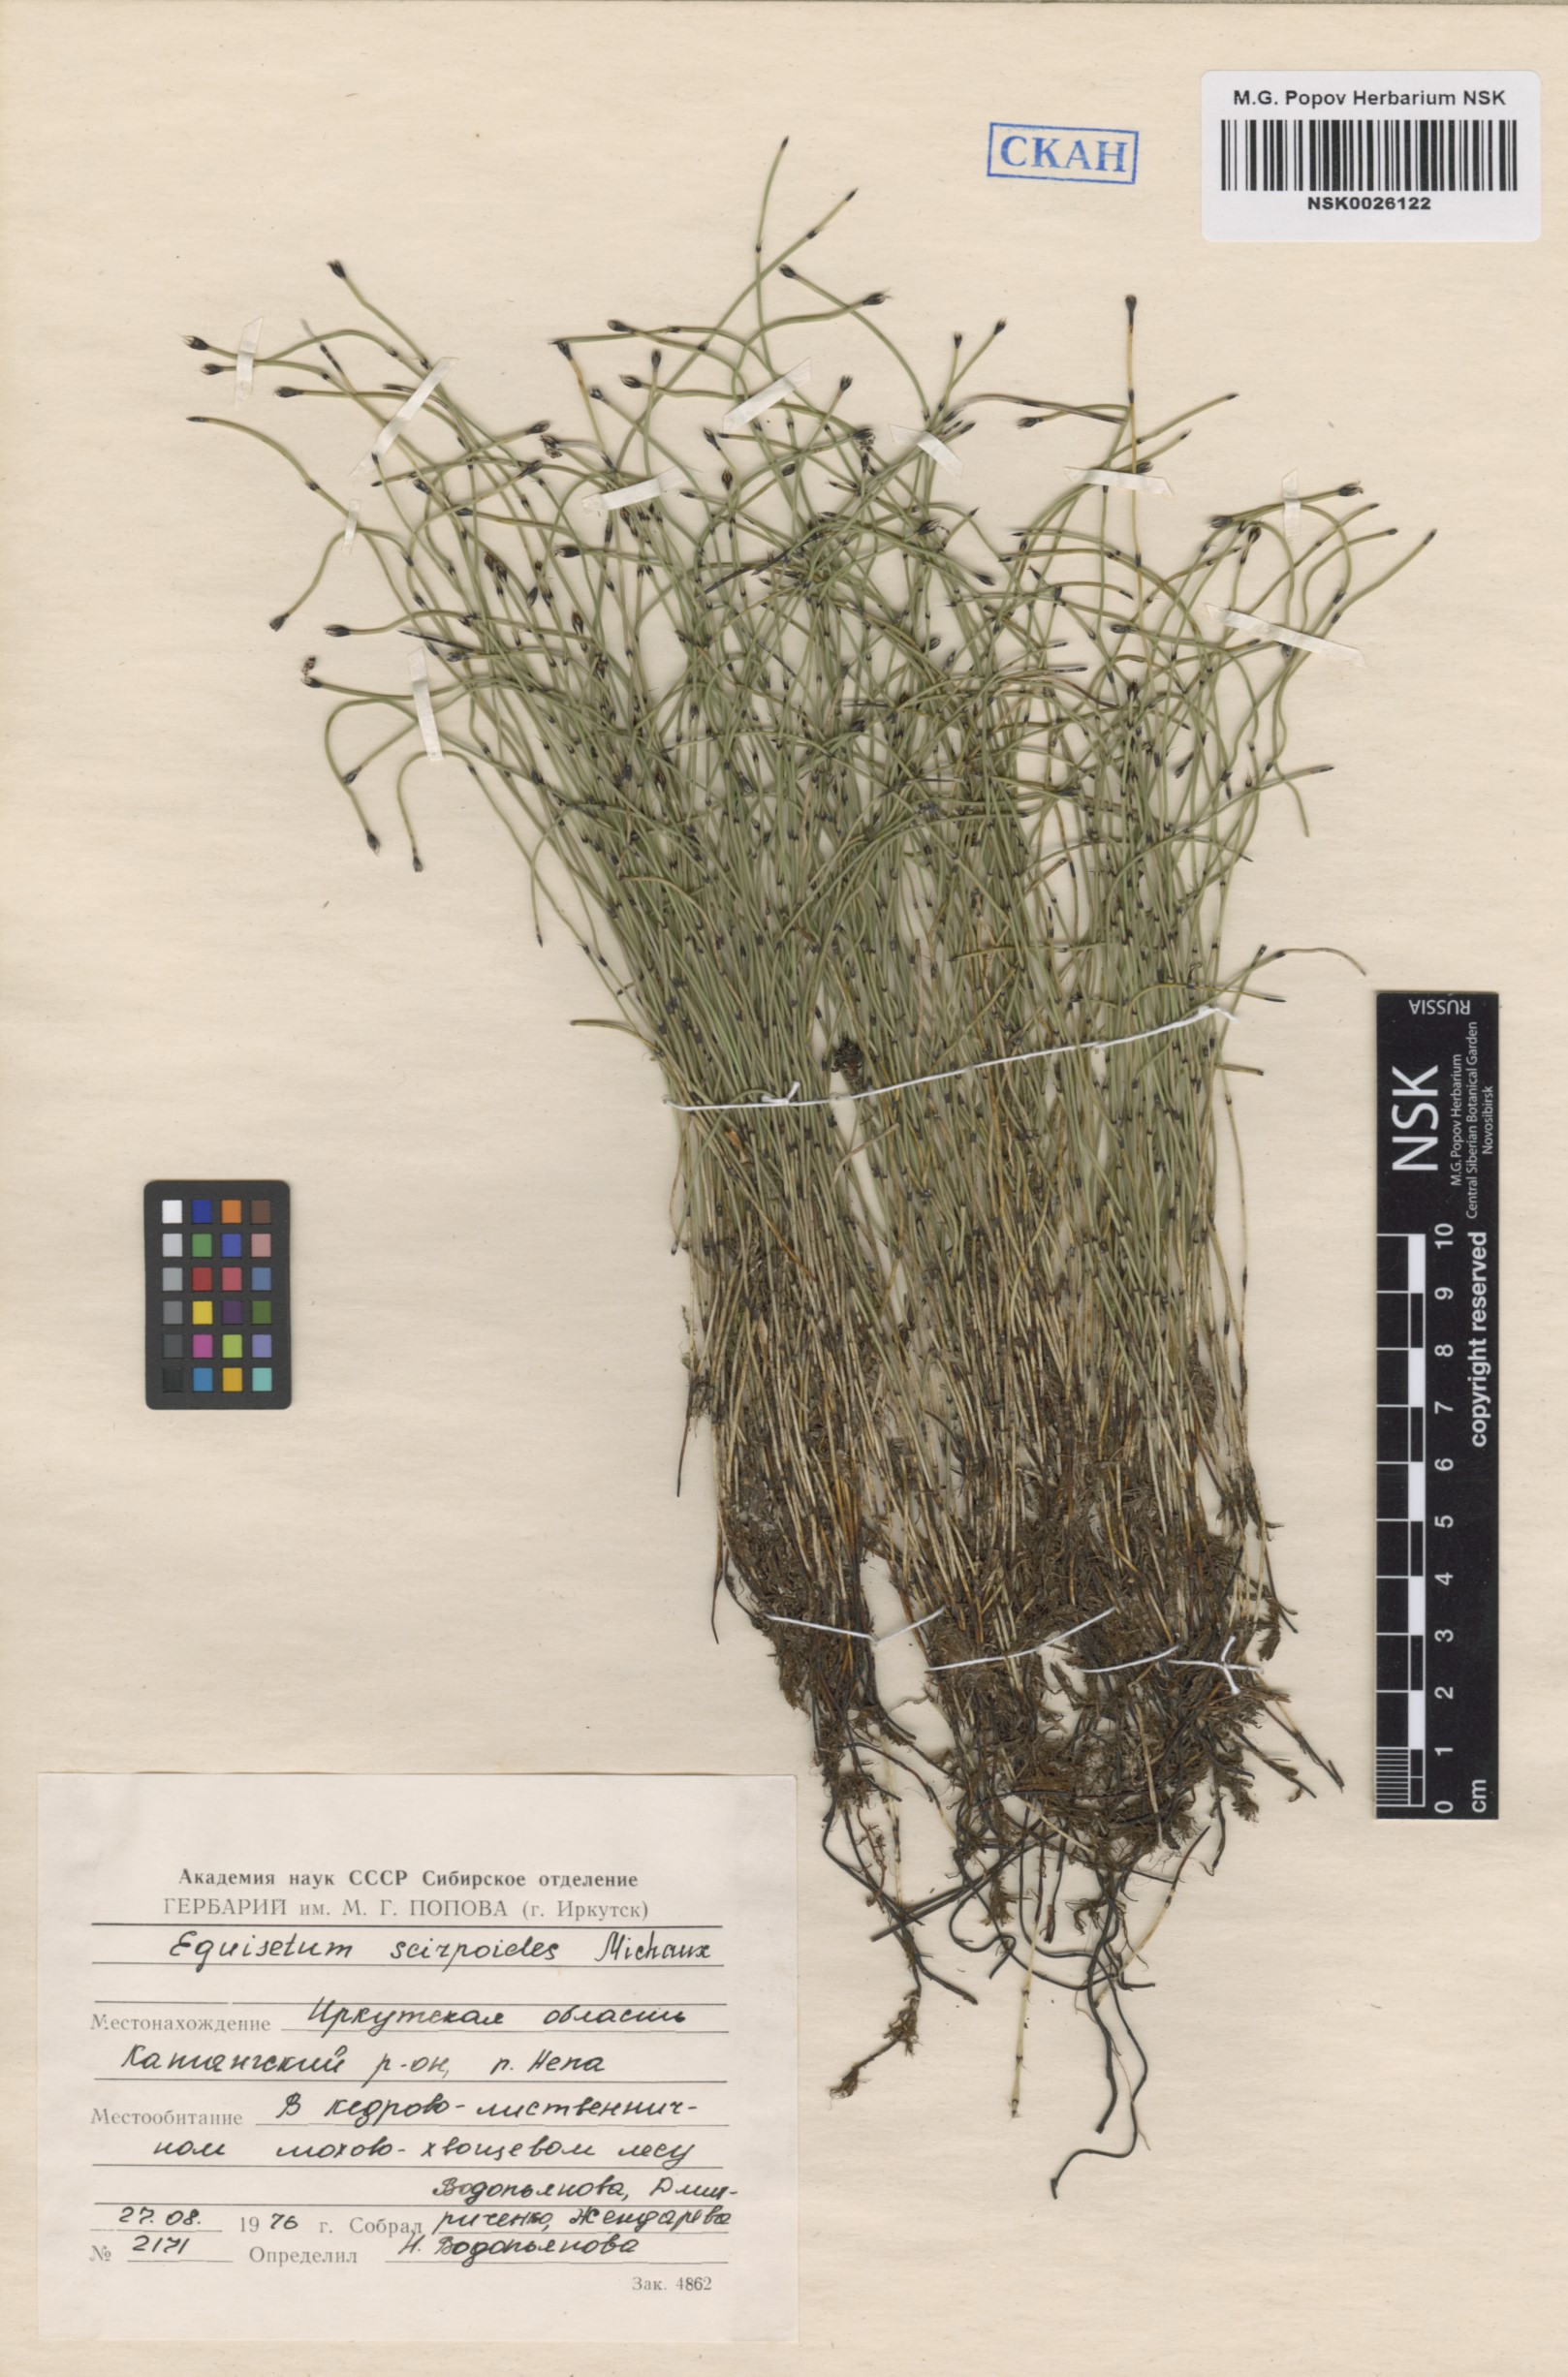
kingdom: Plantae
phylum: Tracheophyta
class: Polypodiopsida
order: Equisetales
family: Equisetaceae
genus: Equisetum
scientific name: Equisetum scirpoides
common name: Delicate horsetail
